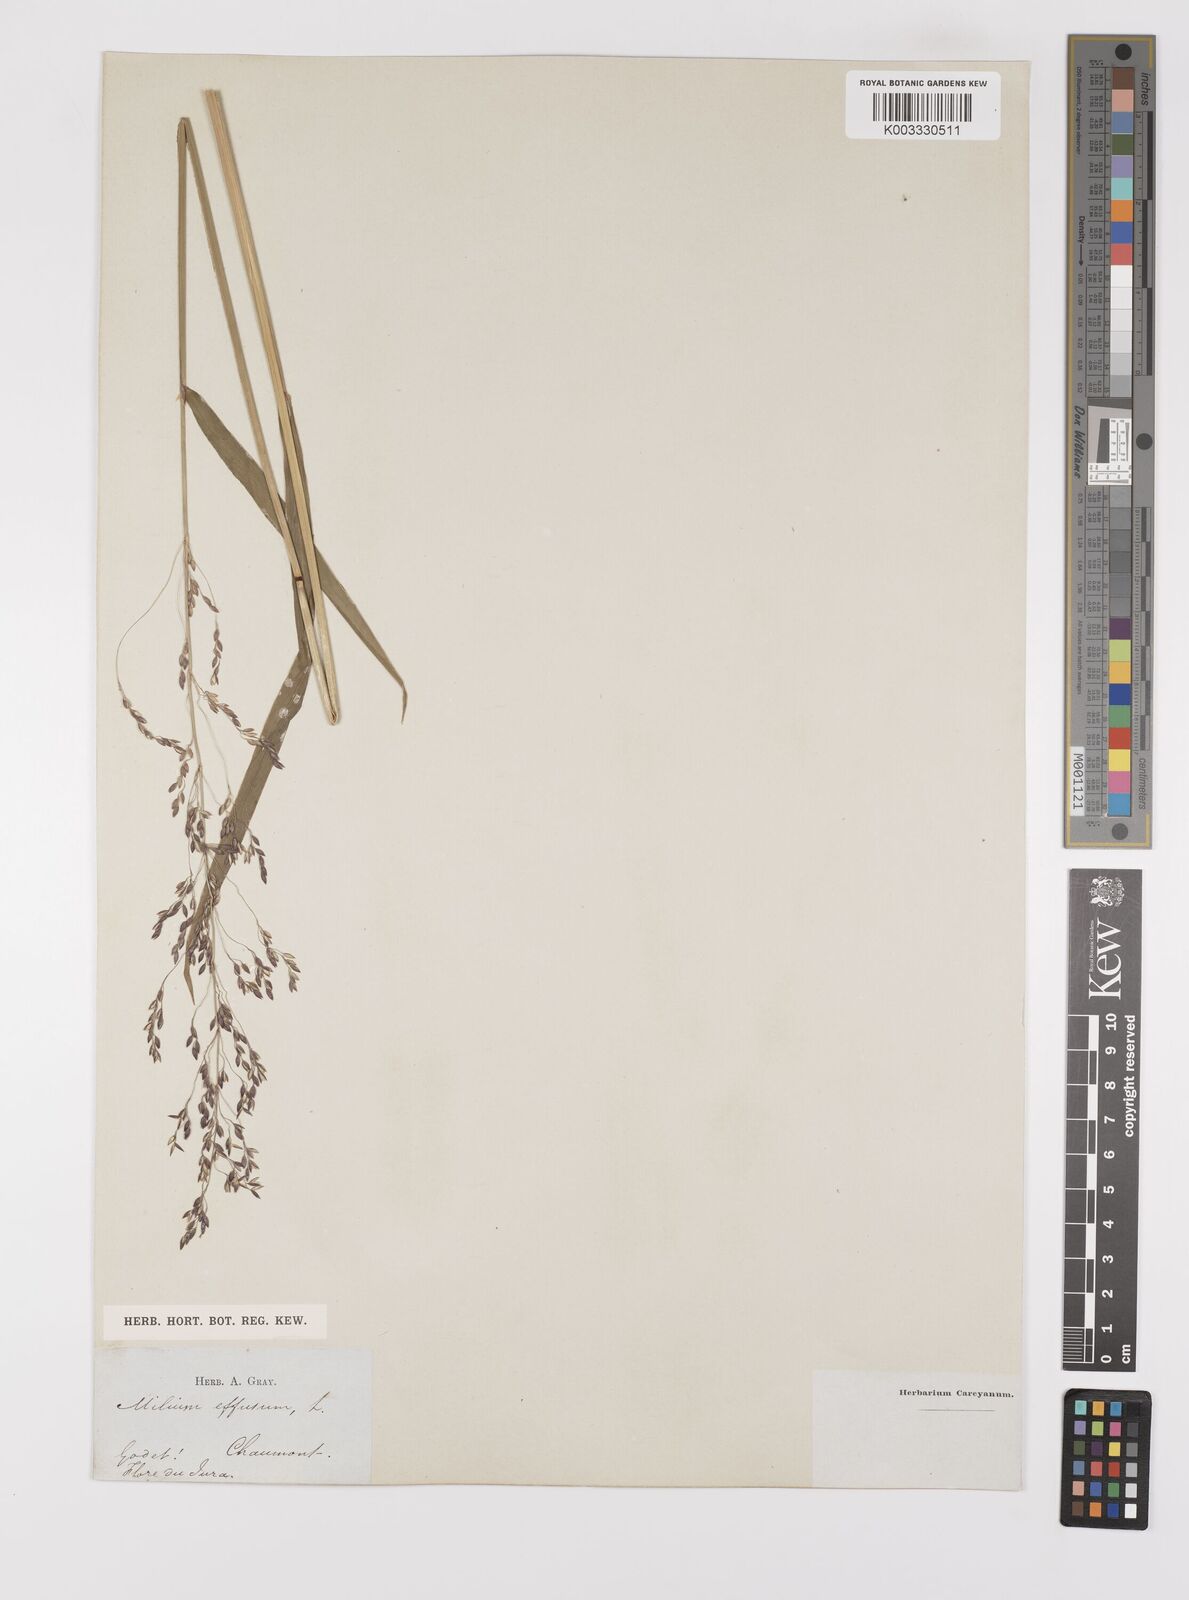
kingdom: Plantae
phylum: Tracheophyta
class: Liliopsida
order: Poales
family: Poaceae
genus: Milium
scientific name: Milium
